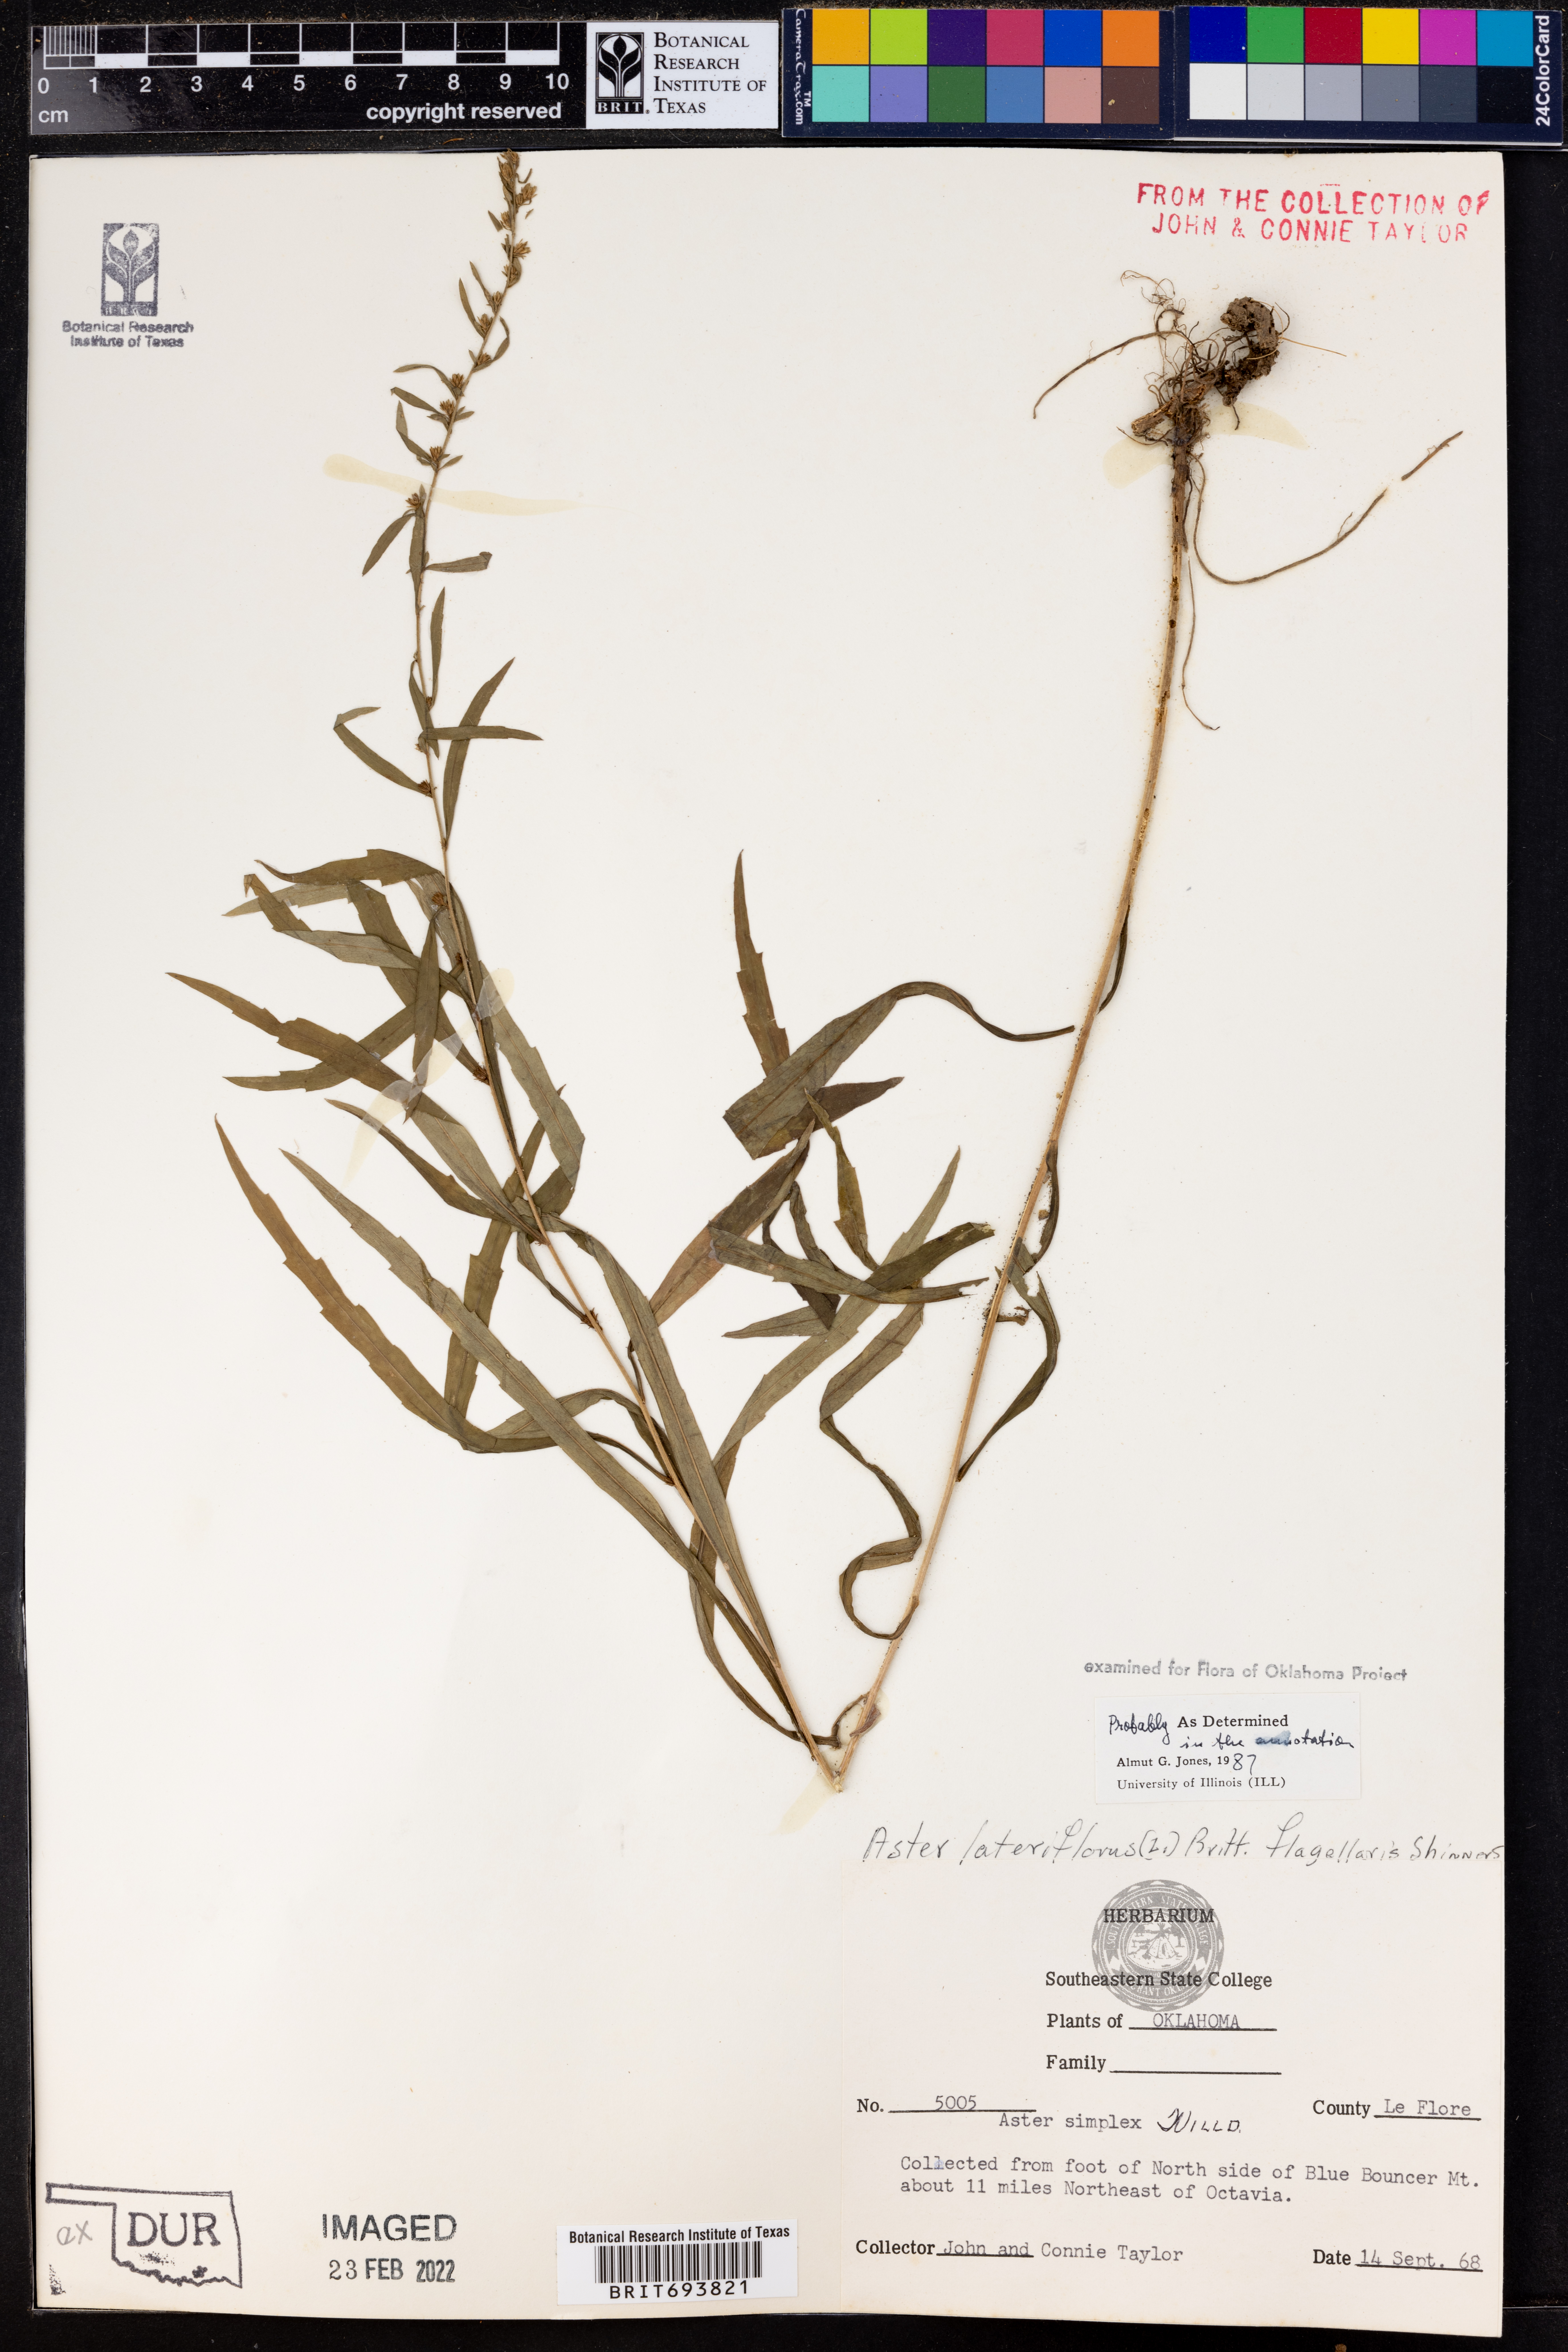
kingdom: Plantae
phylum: Tracheophyta
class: Magnoliopsida
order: Asterales
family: Asteraceae
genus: Symphyotrichum
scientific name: Symphyotrichum lateriflorum
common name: Calico aster
